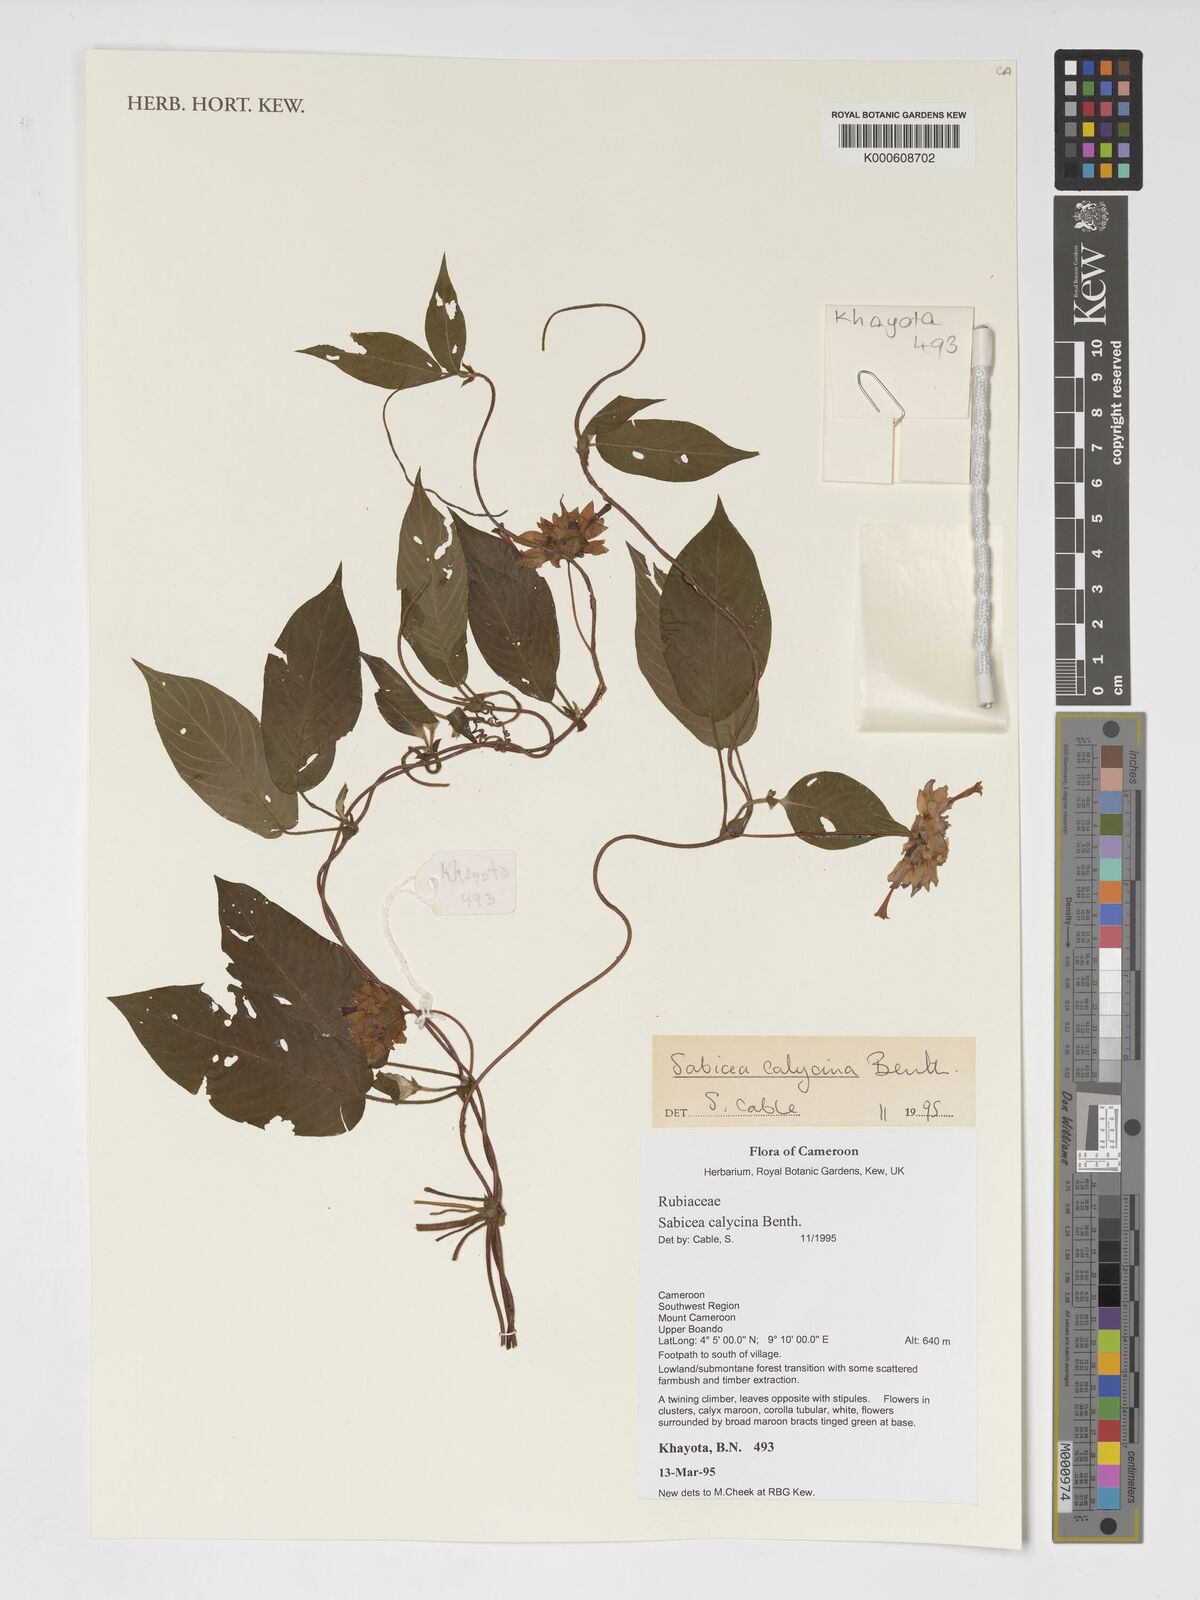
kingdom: Plantae
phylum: Tracheophyta
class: Magnoliopsida
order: Gentianales
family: Rubiaceae
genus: Sabicea
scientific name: Sabicea calycina
